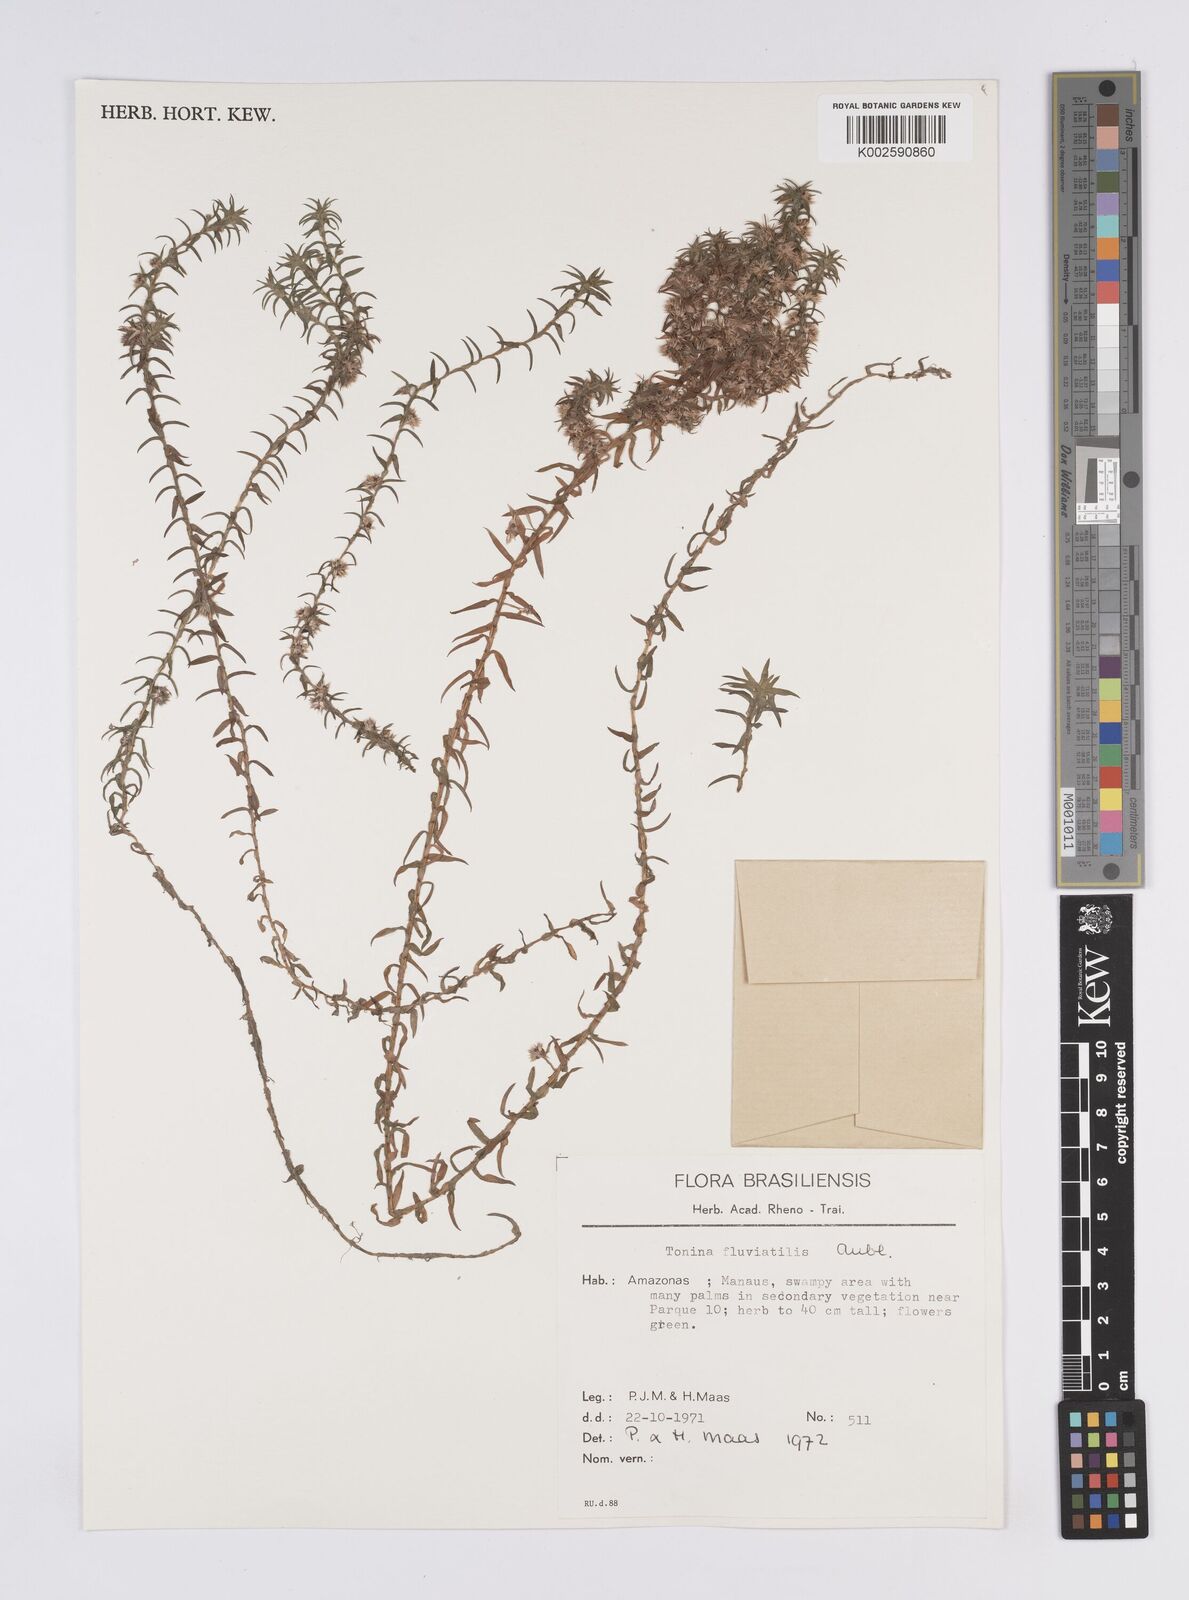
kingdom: Plantae
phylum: Tracheophyta
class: Liliopsida
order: Poales
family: Eriocaulaceae
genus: Paepalanthus
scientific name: Paepalanthus fluviatilis
